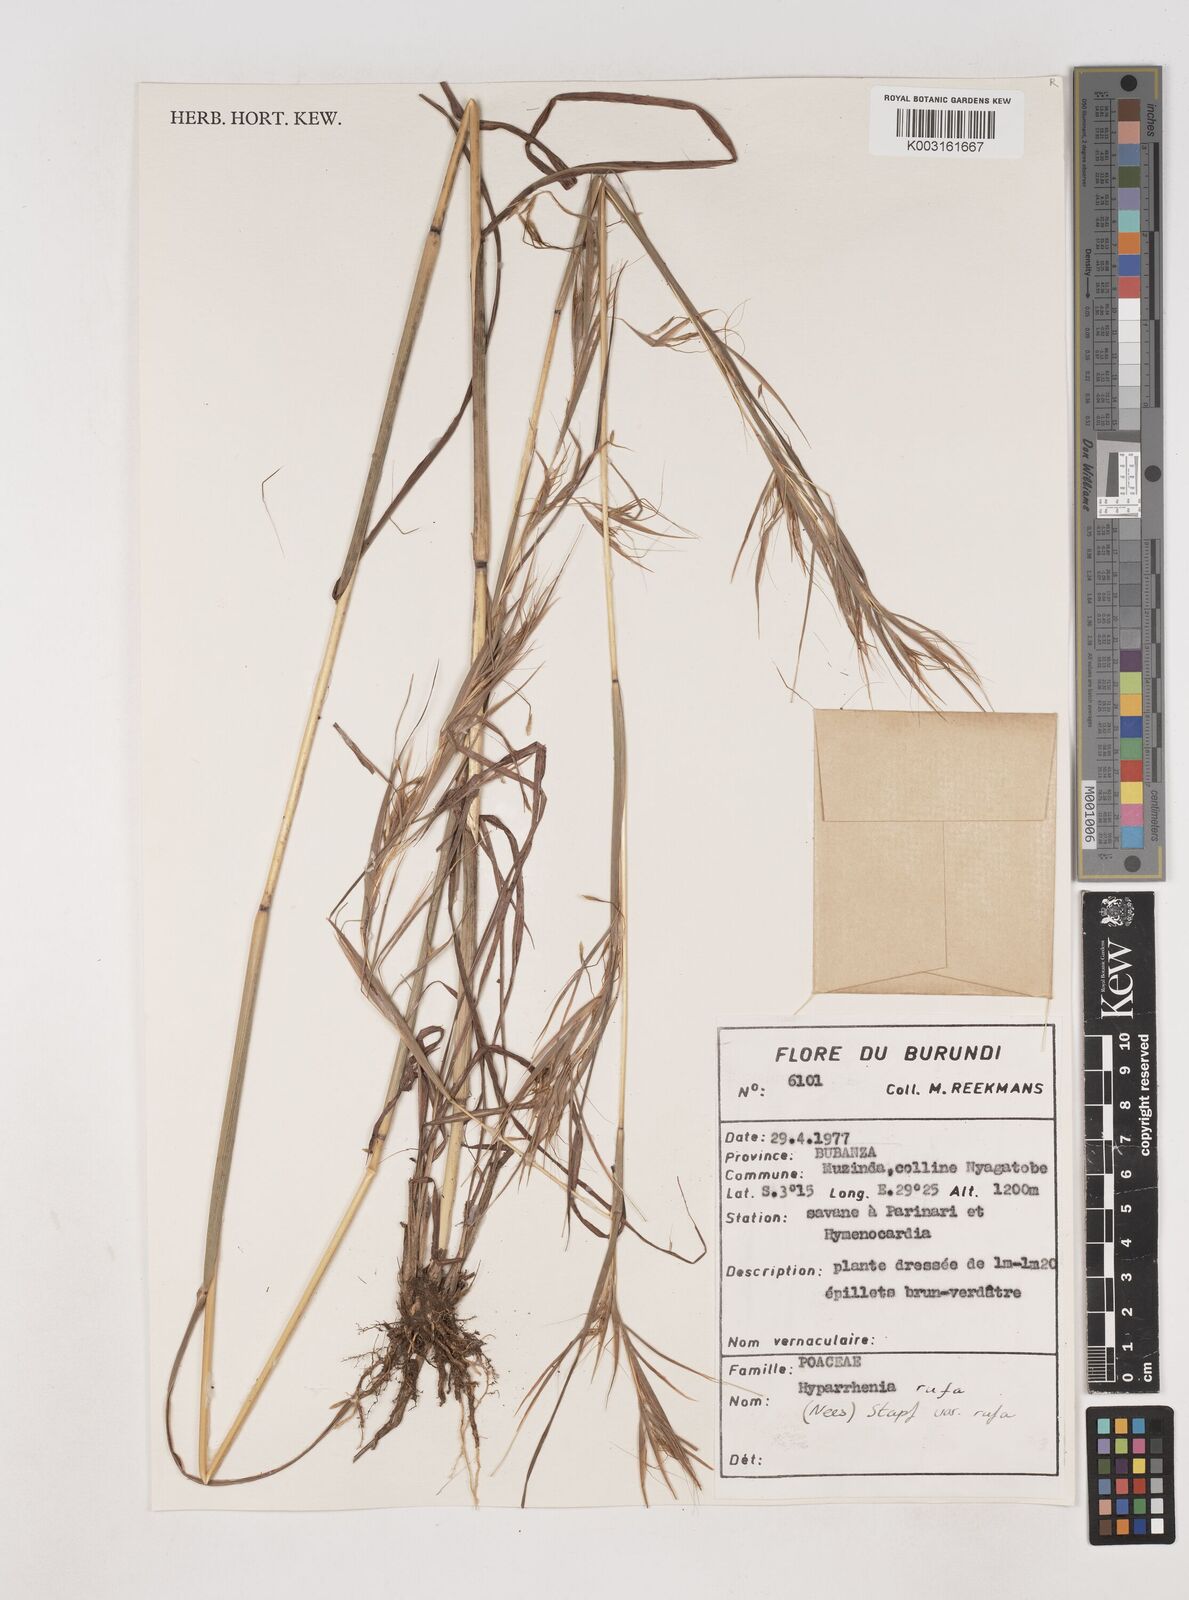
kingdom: Plantae
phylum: Tracheophyta
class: Liliopsida
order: Poales
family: Poaceae
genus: Hyparrhenia
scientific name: Hyparrhenia rufa
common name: Jaraguagrass
